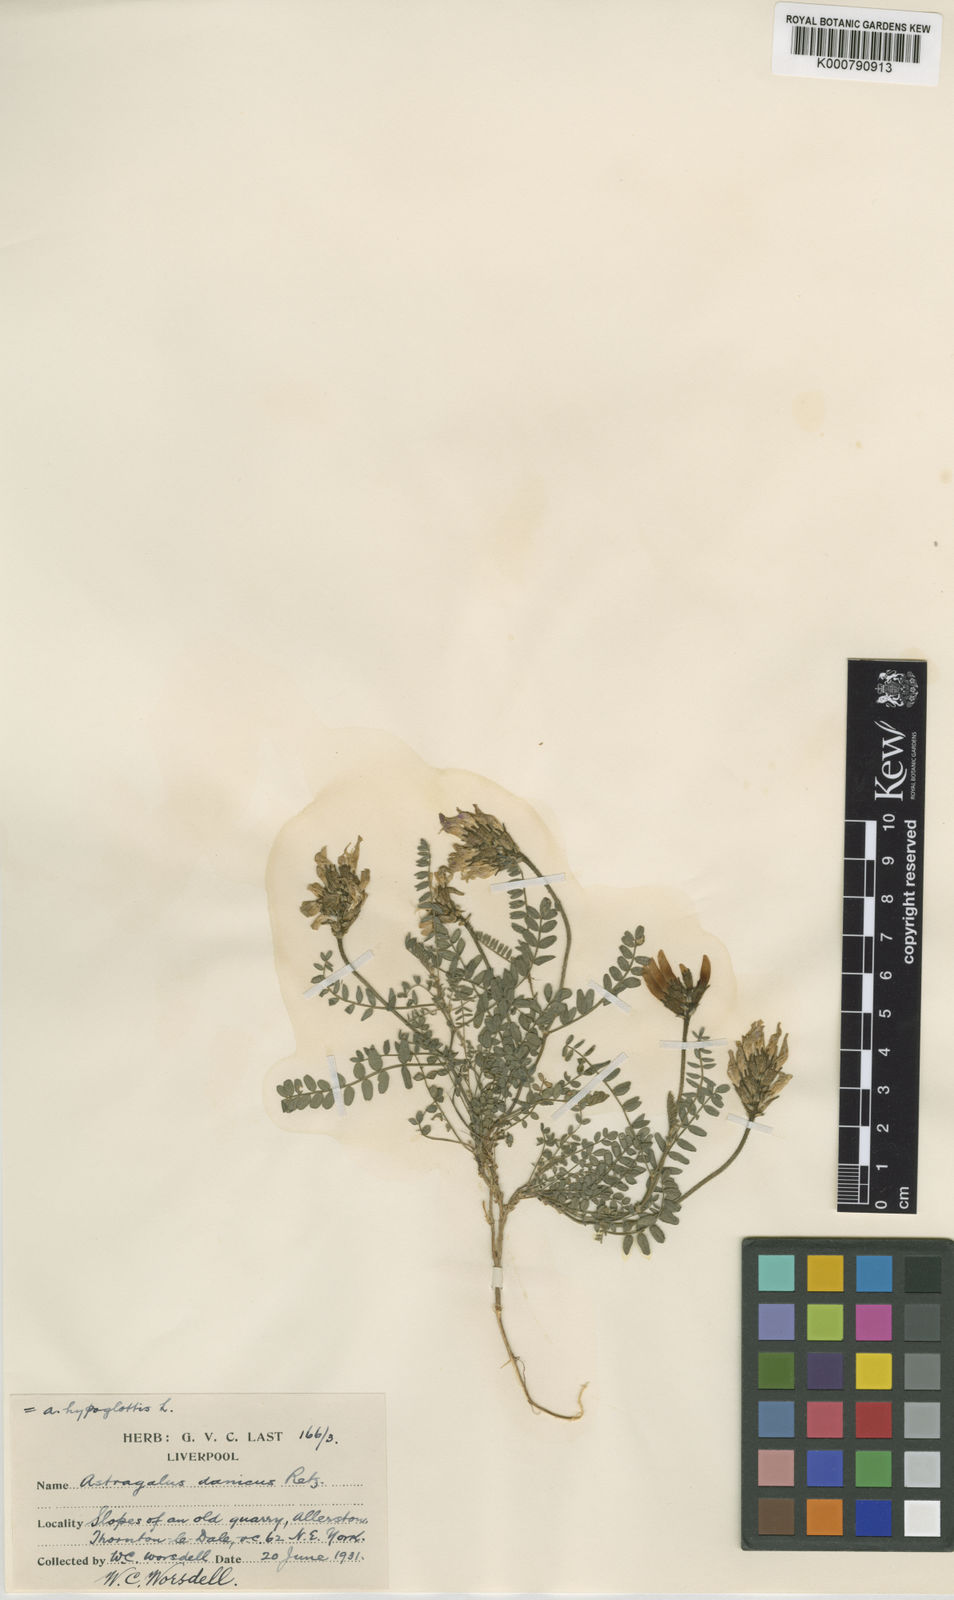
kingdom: Plantae
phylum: Tracheophyta
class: Magnoliopsida
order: Fabales
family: Fabaceae
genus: Astragalus
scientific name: Astragalus danicus
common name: Purple milk-vetch
